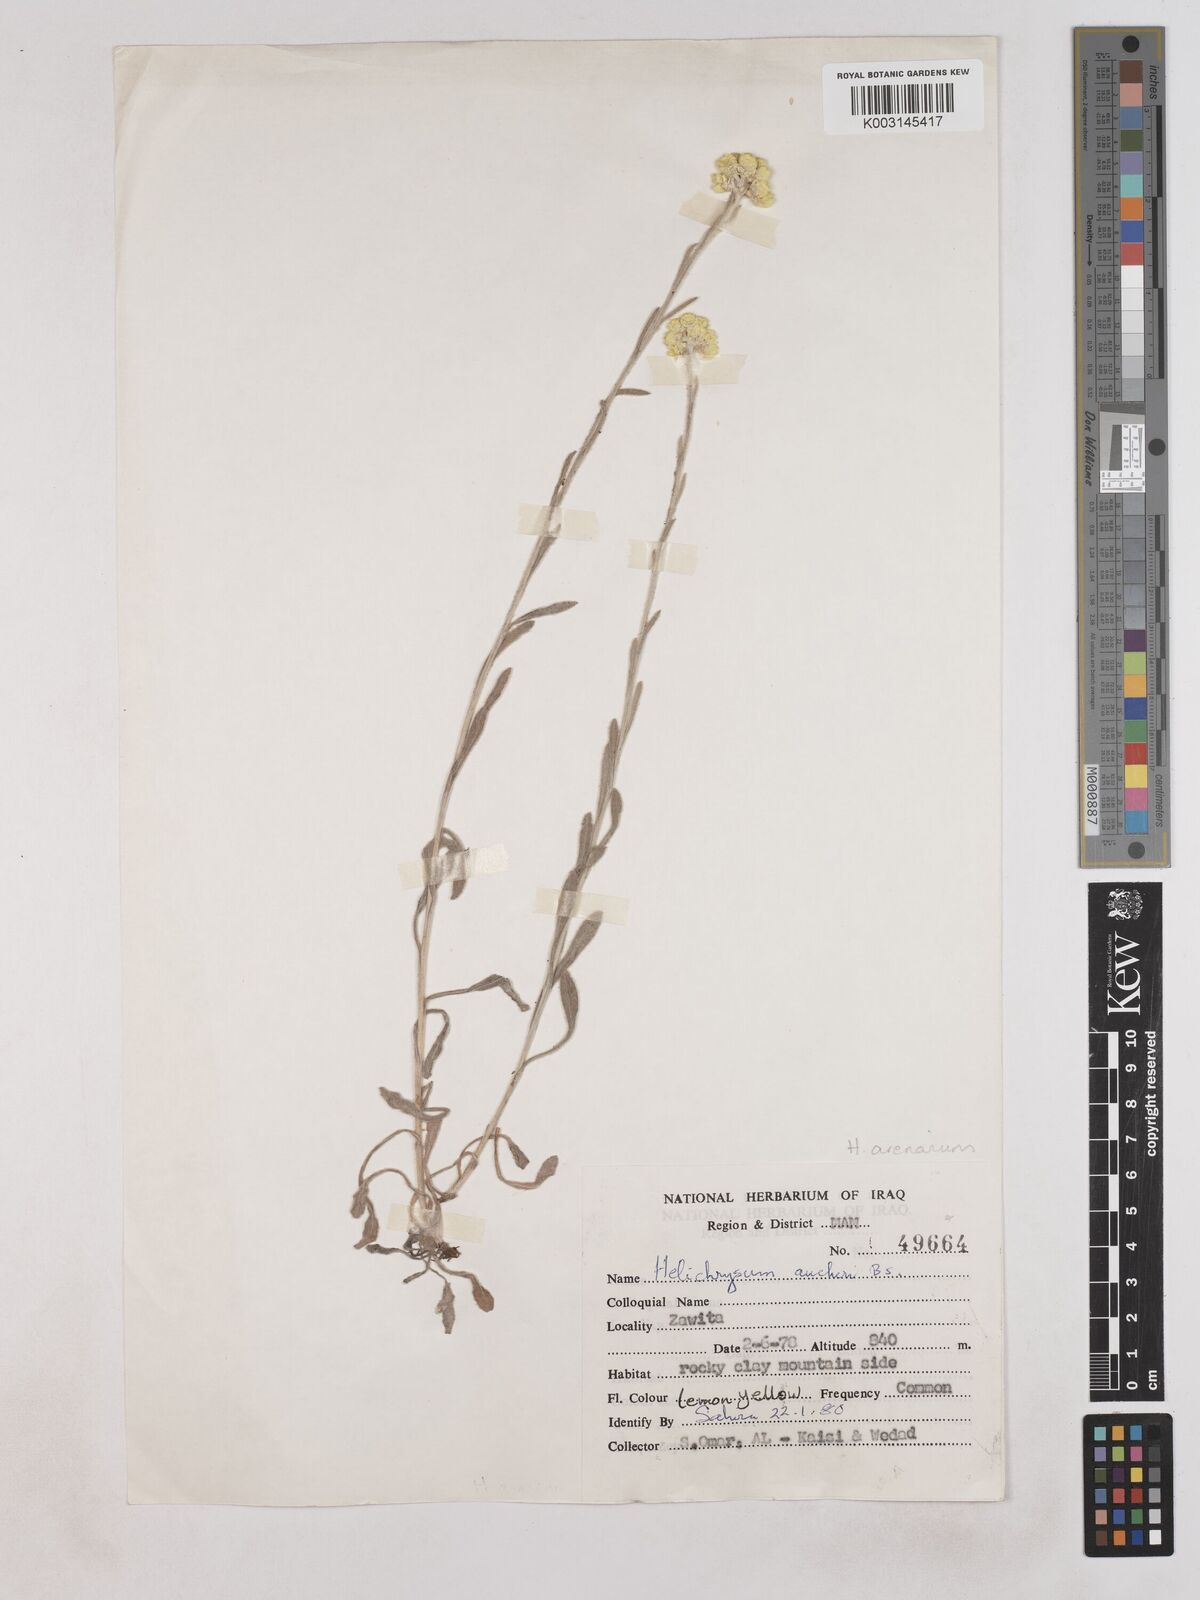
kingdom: Plantae
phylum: Tracheophyta
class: Magnoliopsida
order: Asterales
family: Asteraceae
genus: Helichrysum
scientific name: Helichrysum arenarium
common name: Strawflower
